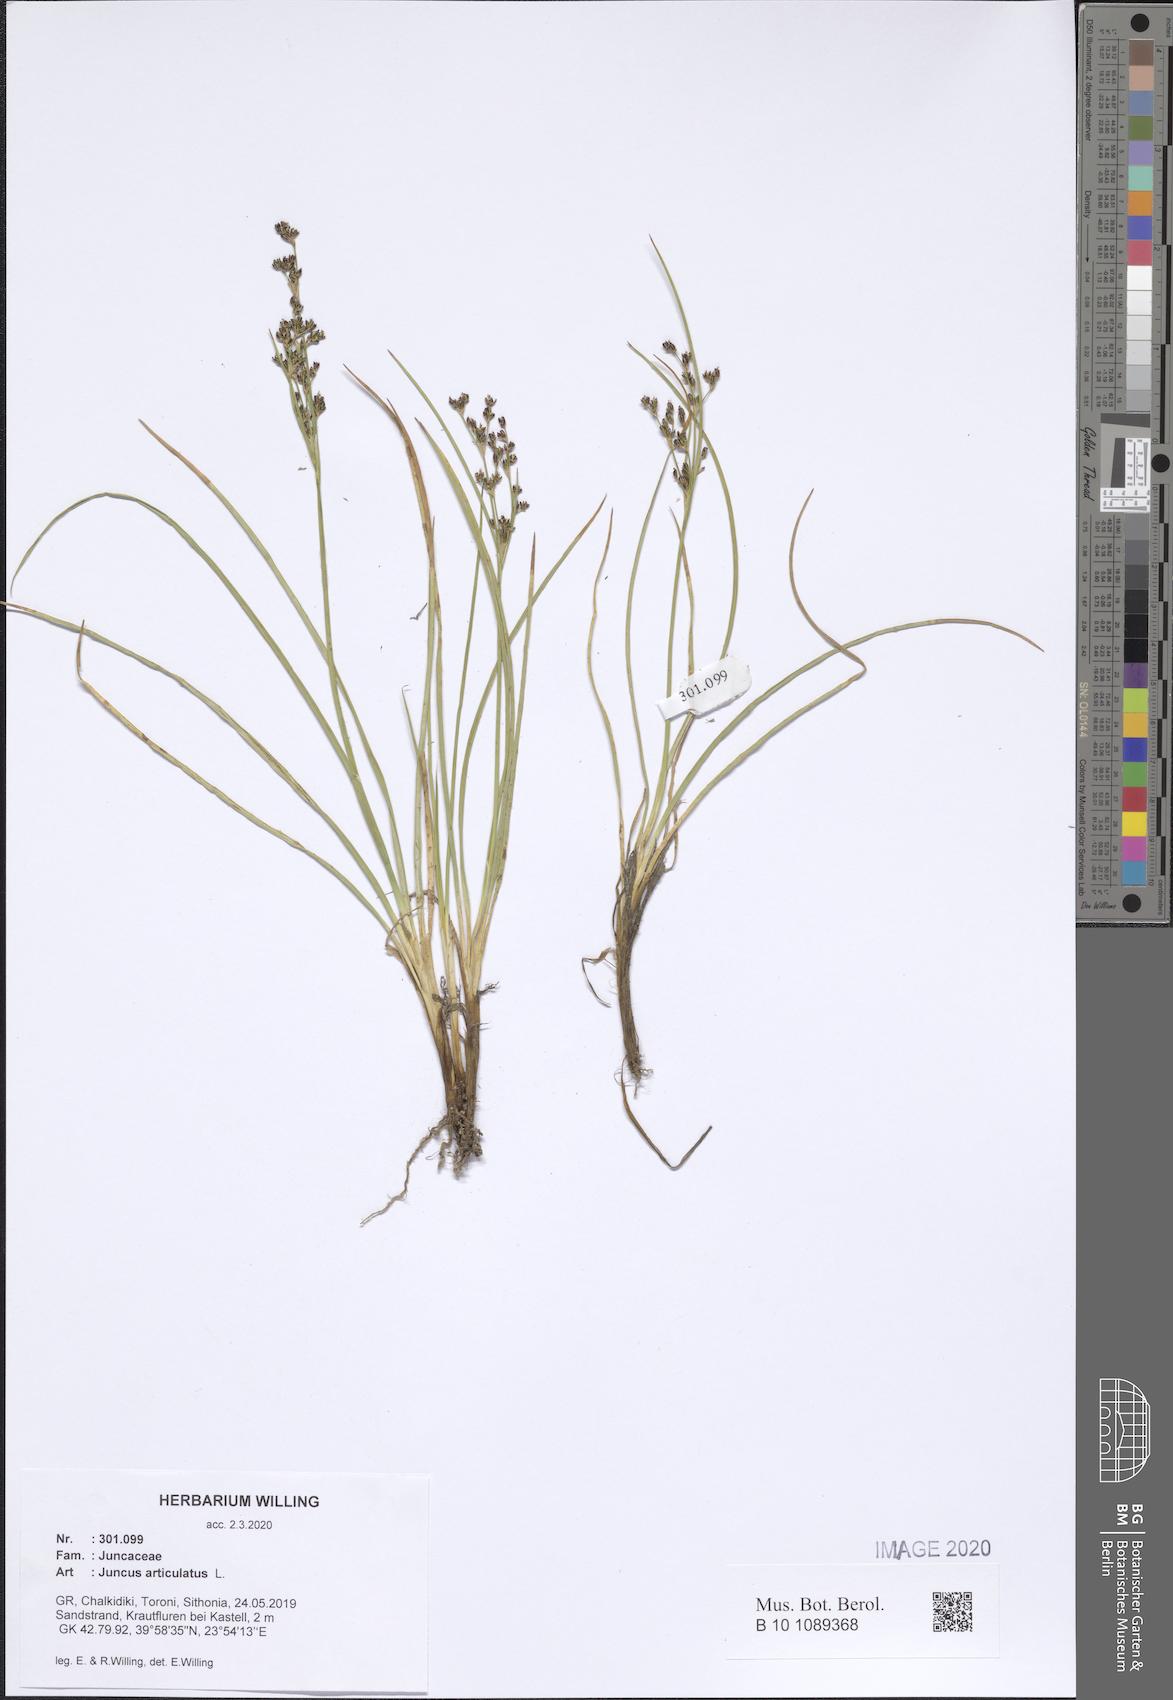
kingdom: Plantae
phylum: Tracheophyta
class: Liliopsida
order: Poales
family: Juncaceae
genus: Juncus
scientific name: Juncus articulatus
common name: Jointed rush
